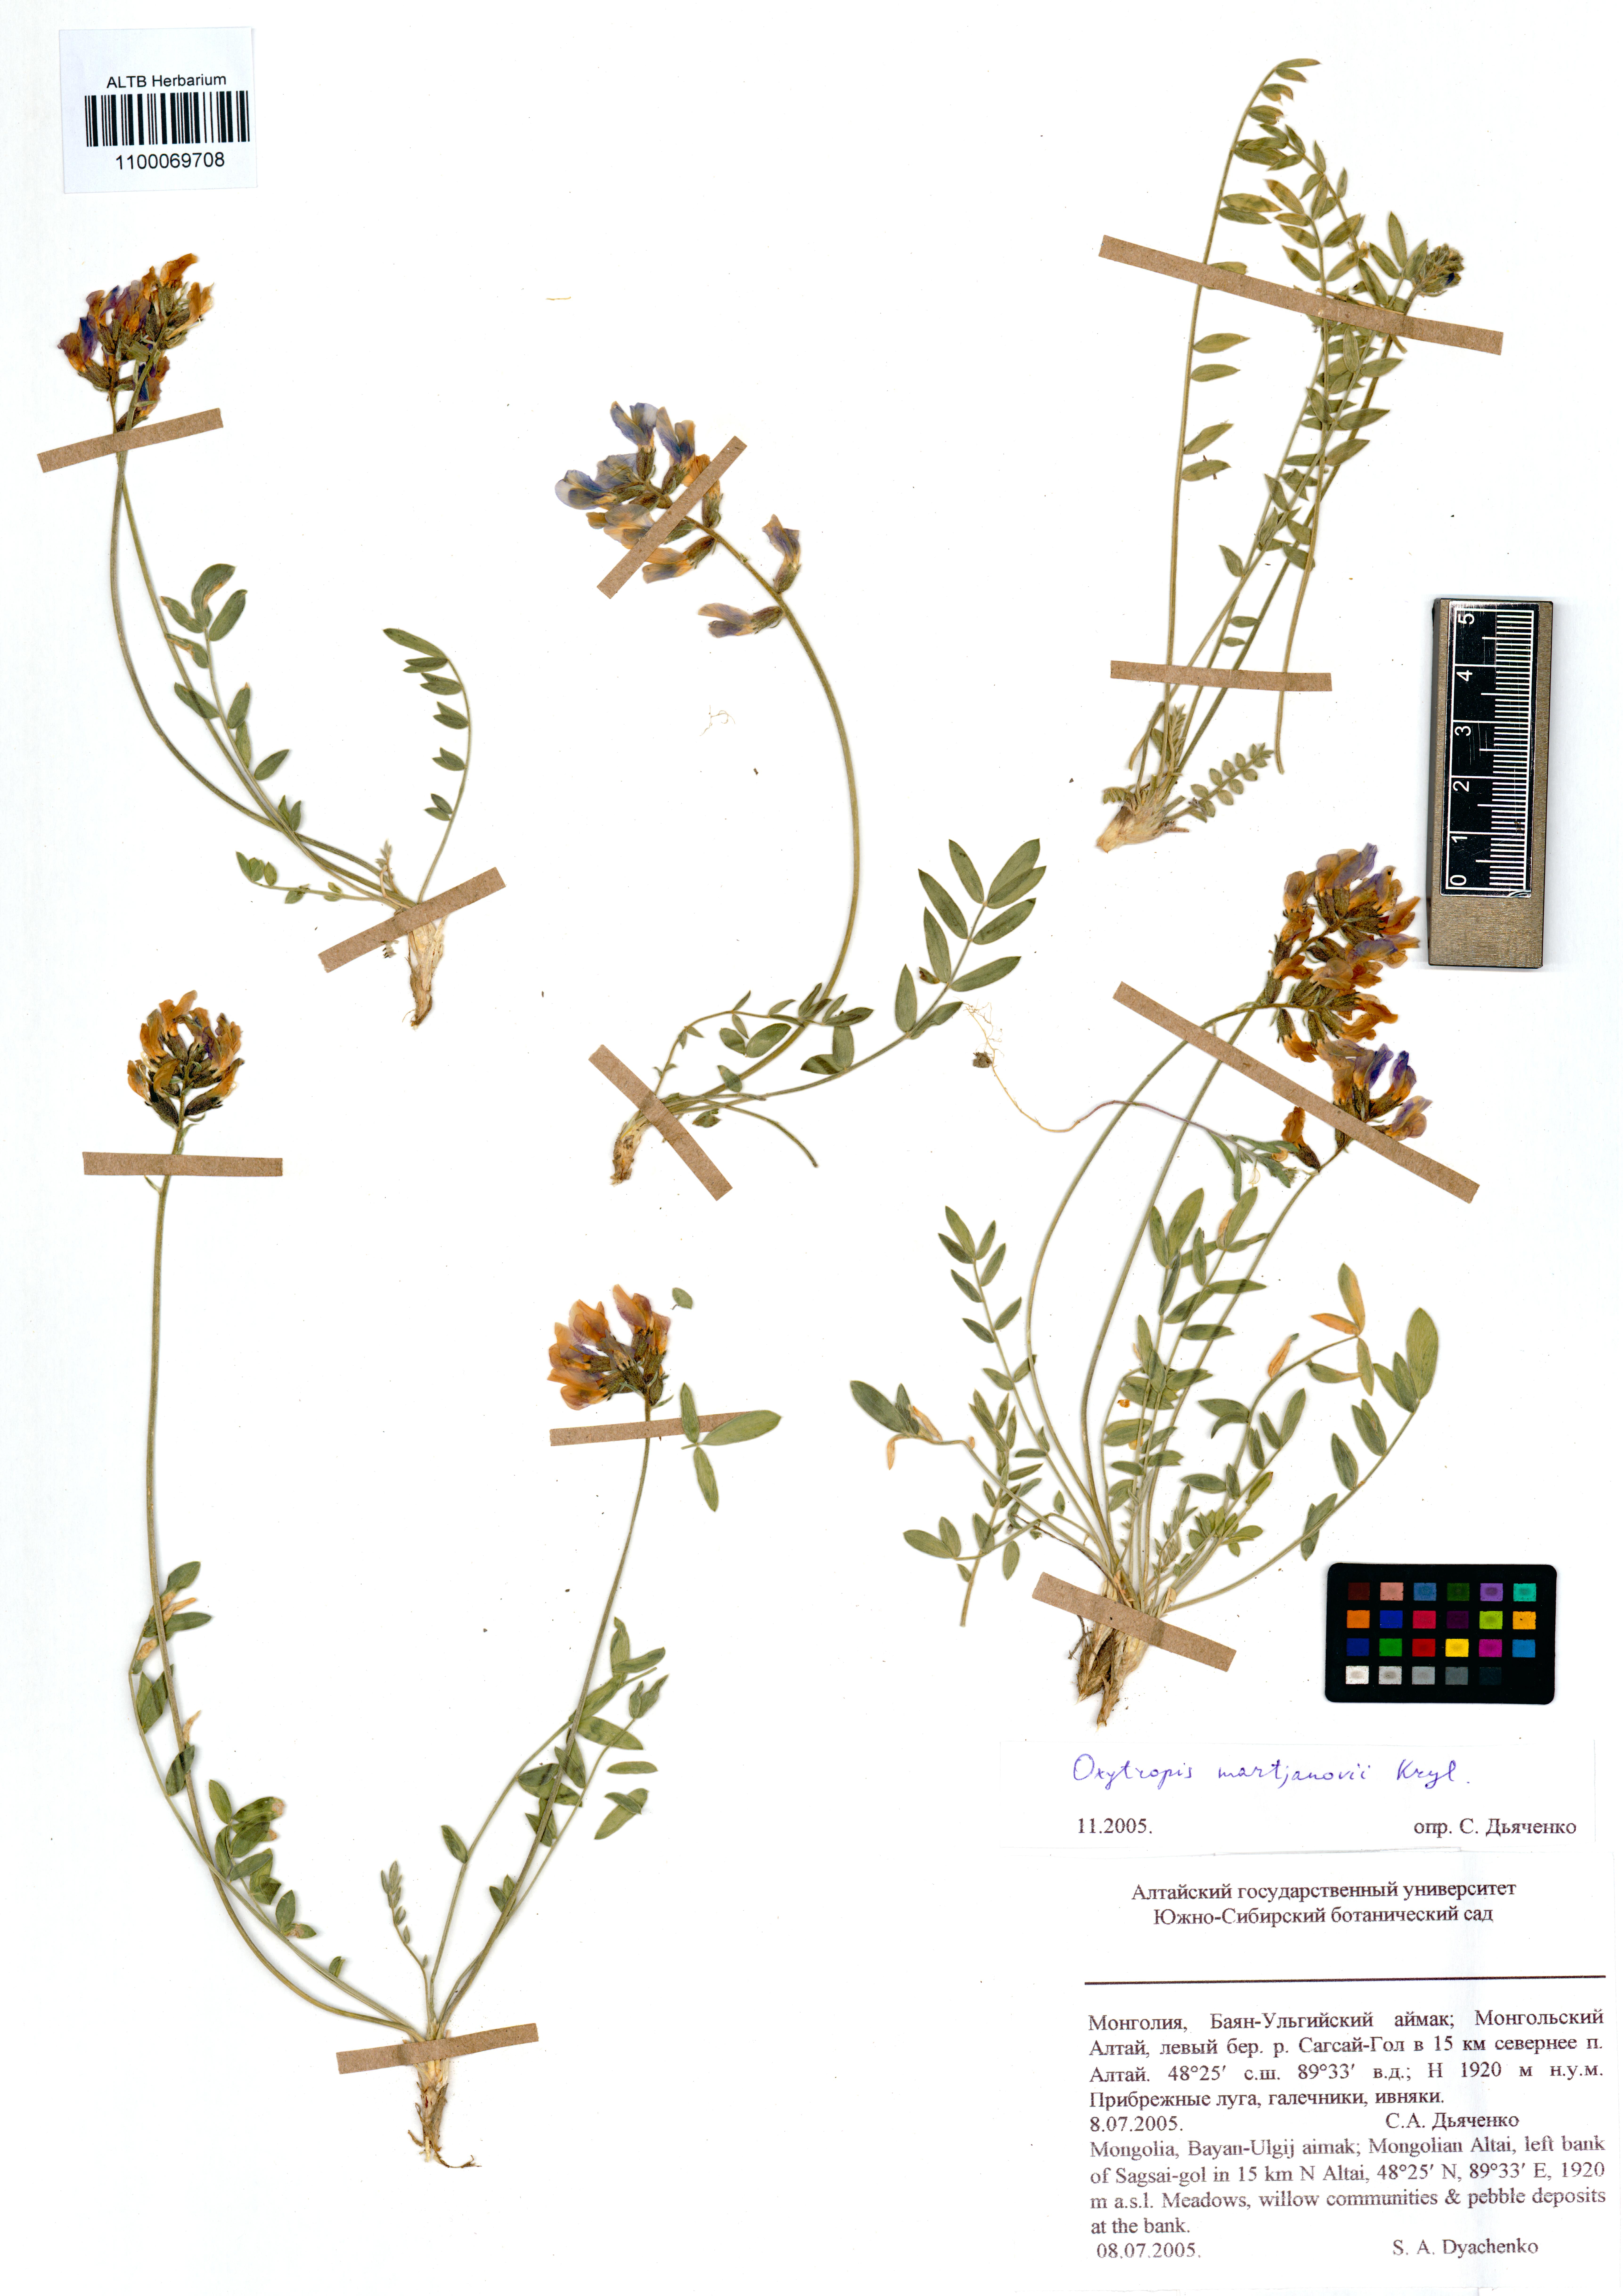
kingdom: Plantae
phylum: Tracheophyta
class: Magnoliopsida
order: Fabales
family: Fabaceae
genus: Oxytropis
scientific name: Oxytropis martjanovii
